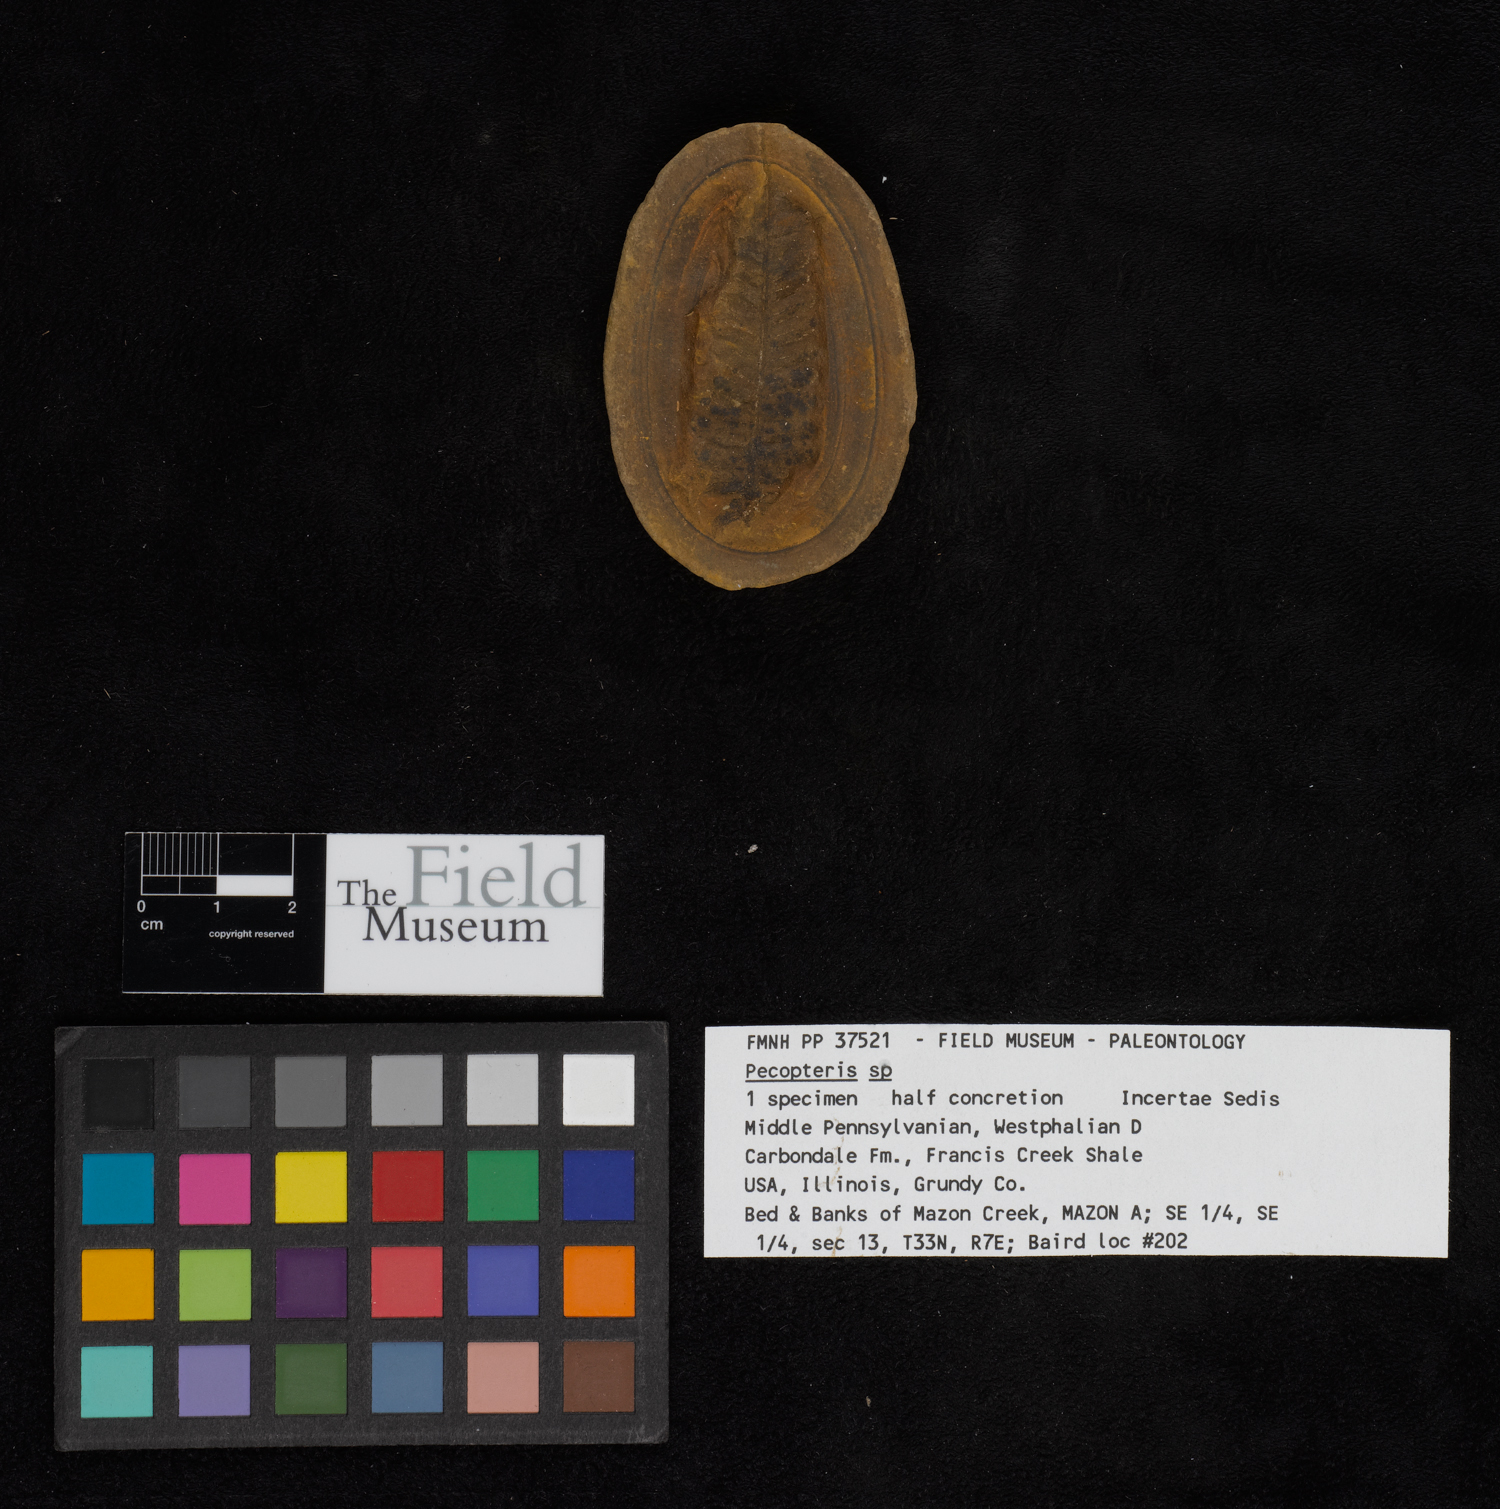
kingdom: Plantae
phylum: Tracheophyta
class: Polypodiopsida
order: Marattiales
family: Asterothecaceae
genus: Pecopteris
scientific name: Pecopteris
